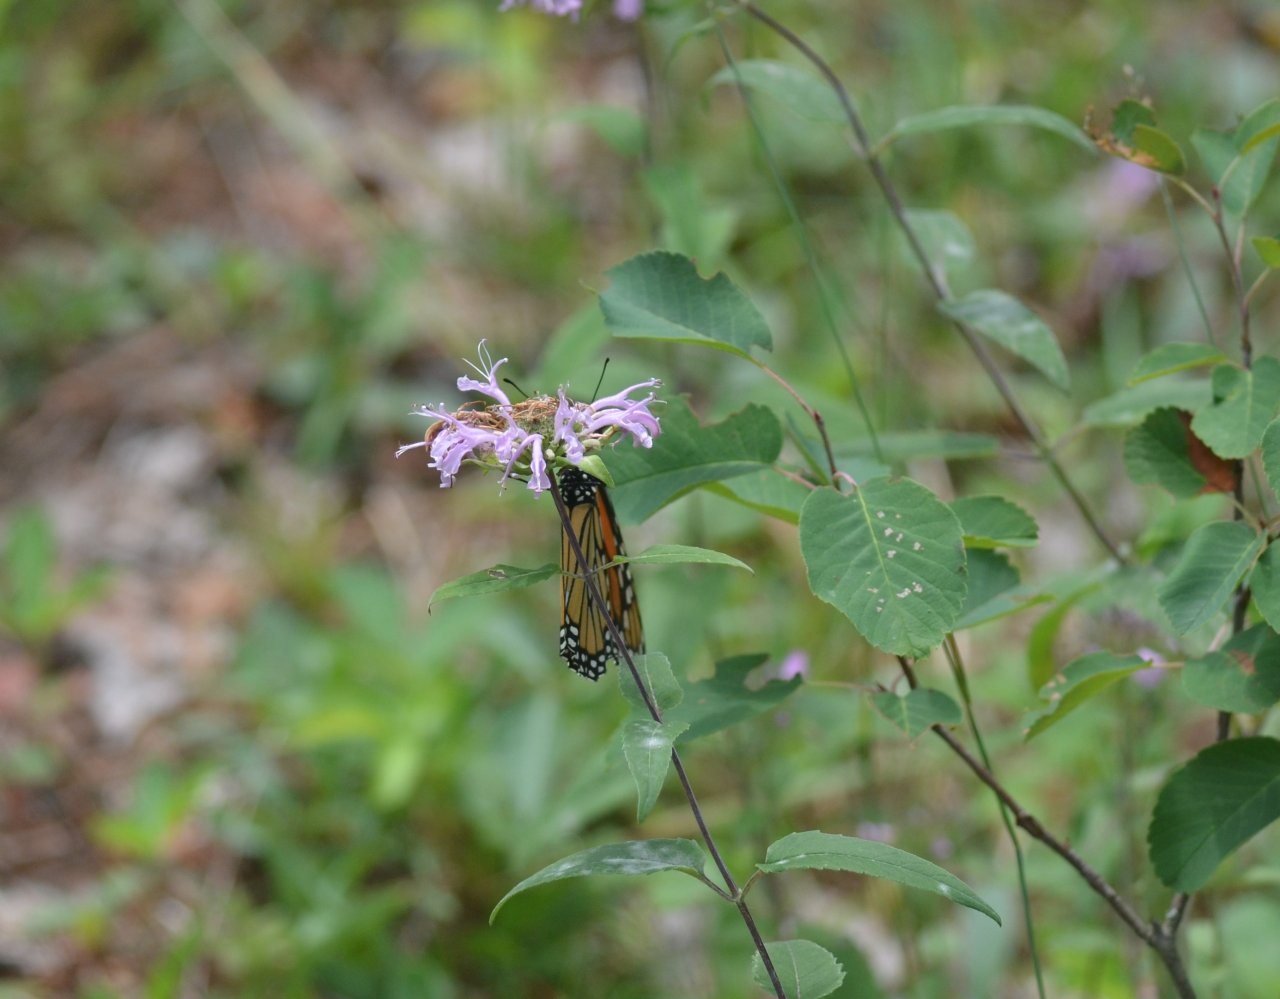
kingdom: Animalia
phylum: Arthropoda
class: Insecta
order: Lepidoptera
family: Nymphalidae
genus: Danaus
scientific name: Danaus plexippus
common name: Monarch
